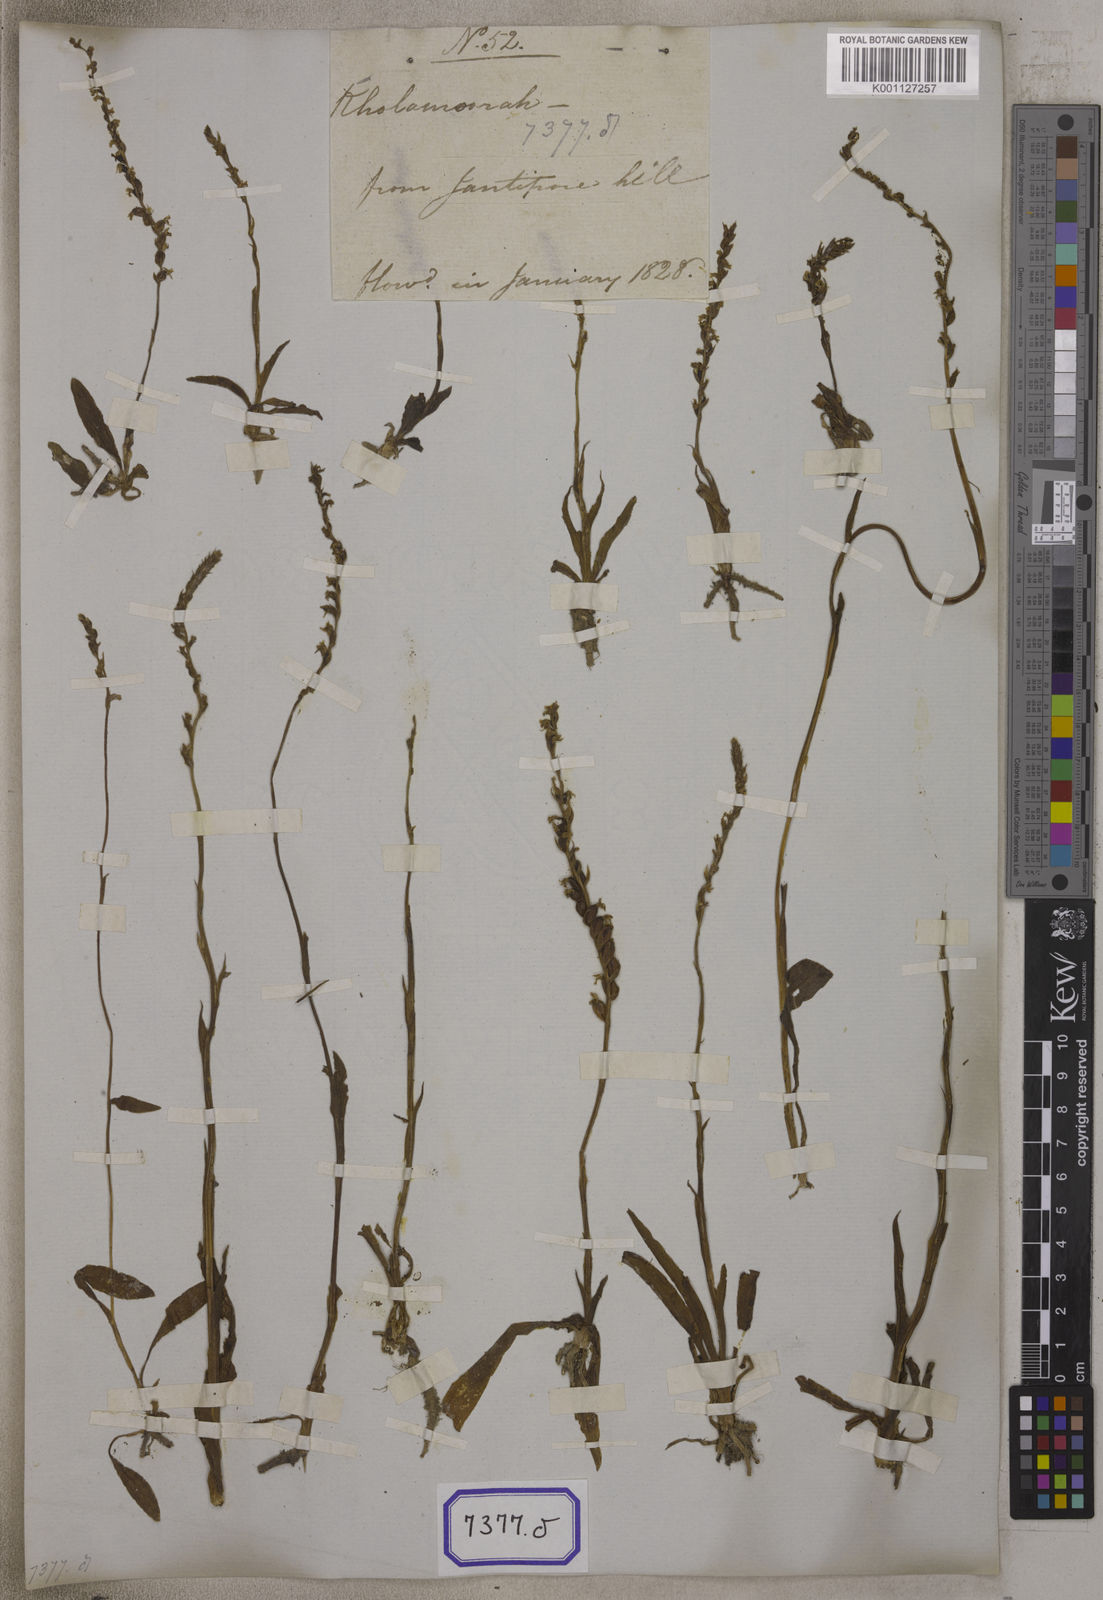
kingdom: Plantae
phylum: Tracheophyta
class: Liliopsida
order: Asparagales
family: Orchidaceae
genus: Spiranthes
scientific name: Spiranthes
